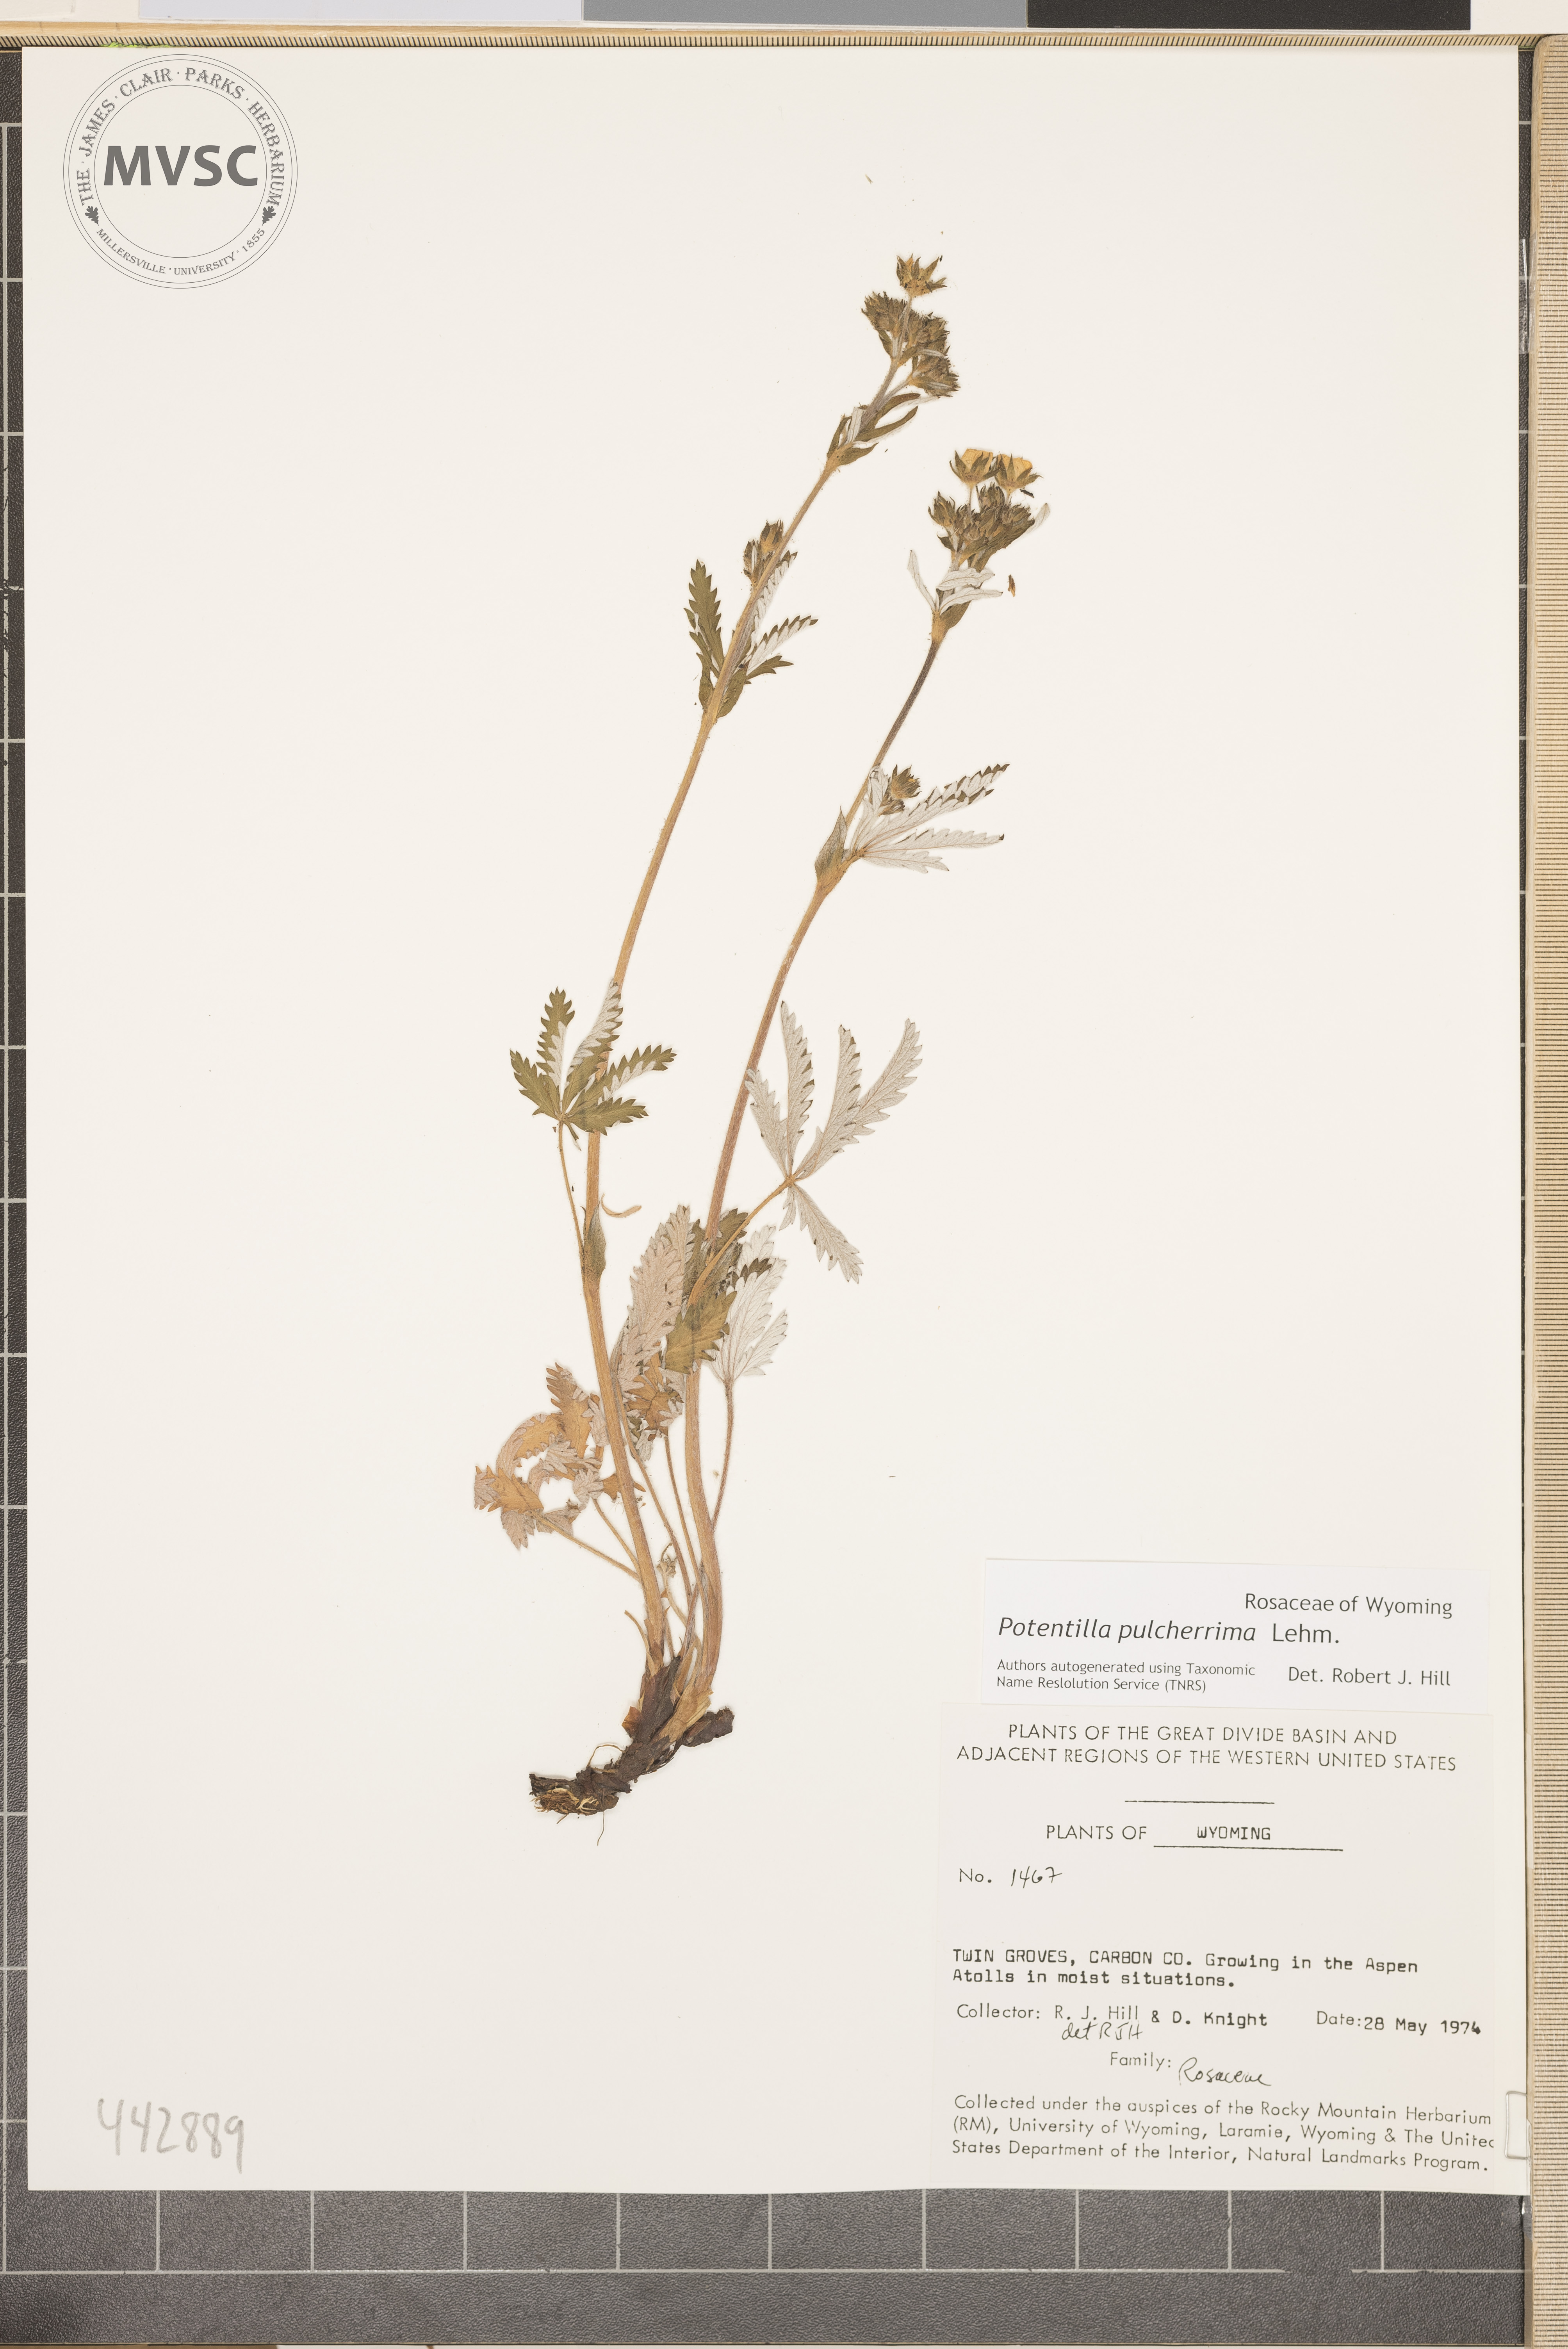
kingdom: Plantae
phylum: Tracheophyta
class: Magnoliopsida
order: Rosales
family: Rosaceae
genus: Potentilla
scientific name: Potentilla pulcherrima
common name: Beautiful cinquefoil
